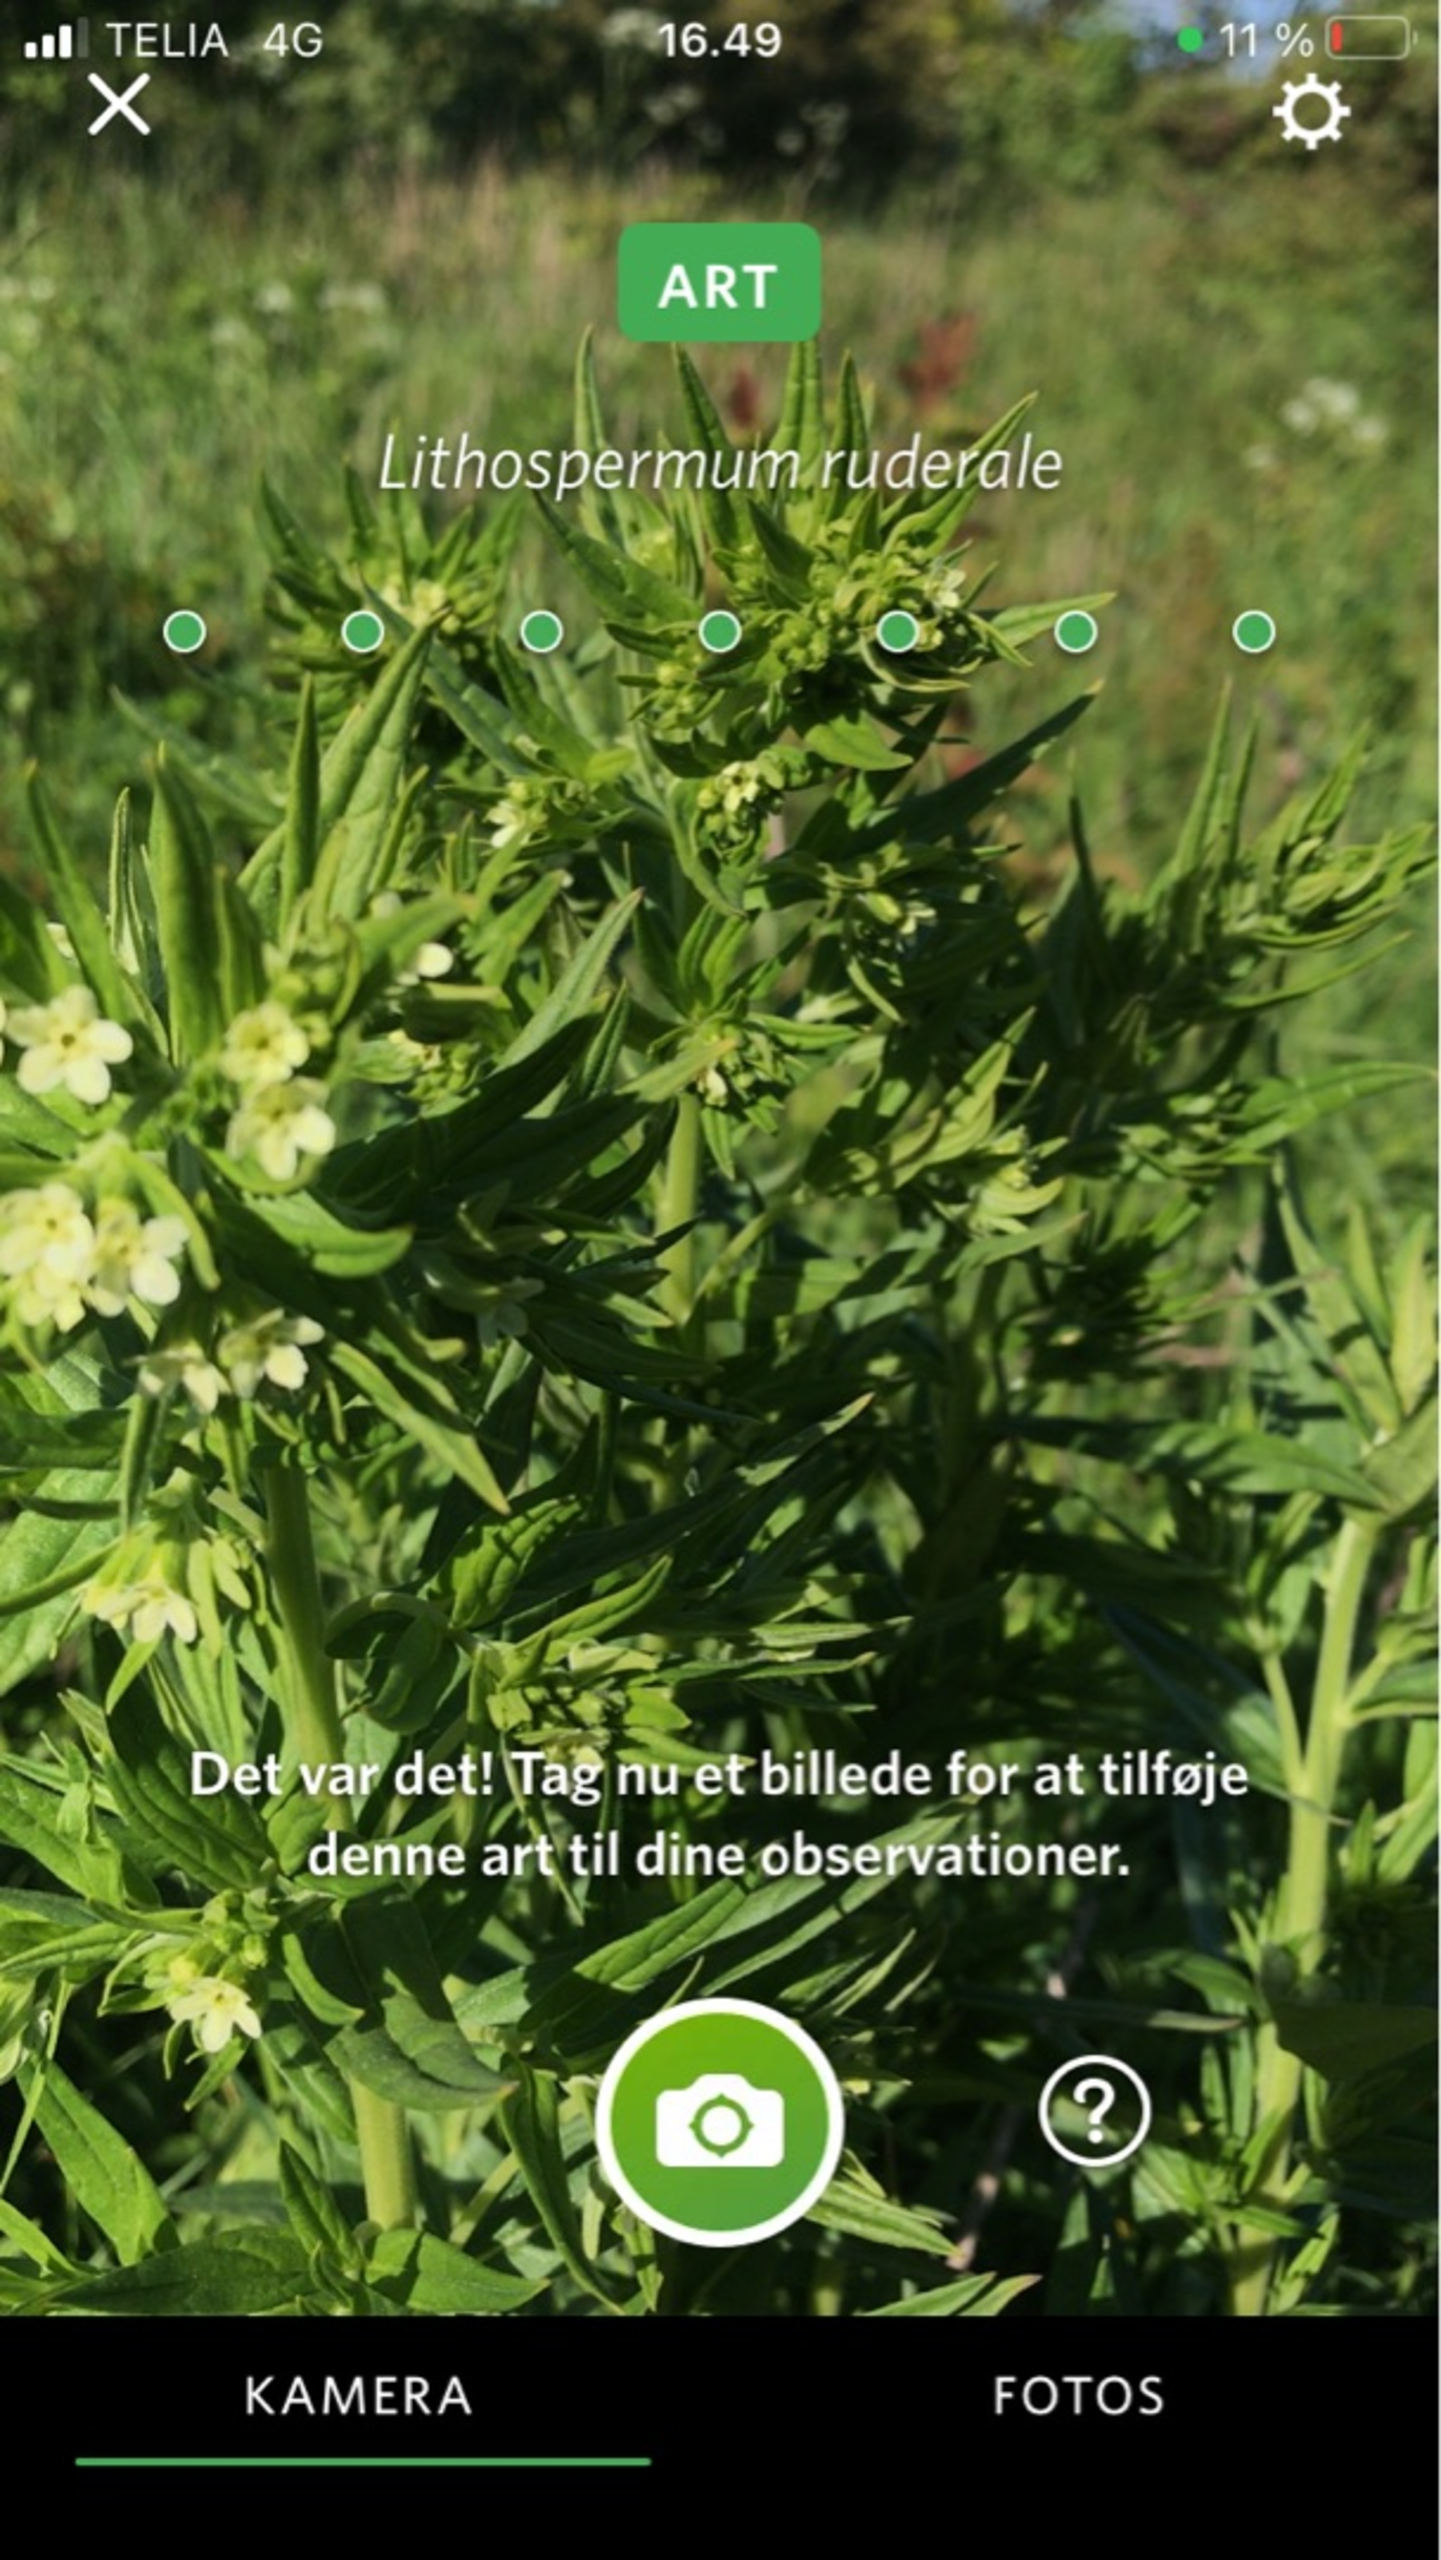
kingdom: Plantae
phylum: Tracheophyta
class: Magnoliopsida
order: Boraginales
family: Boraginaceae
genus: Lithospermum
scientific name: Lithospermum officinale
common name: Læge-stenfrø
